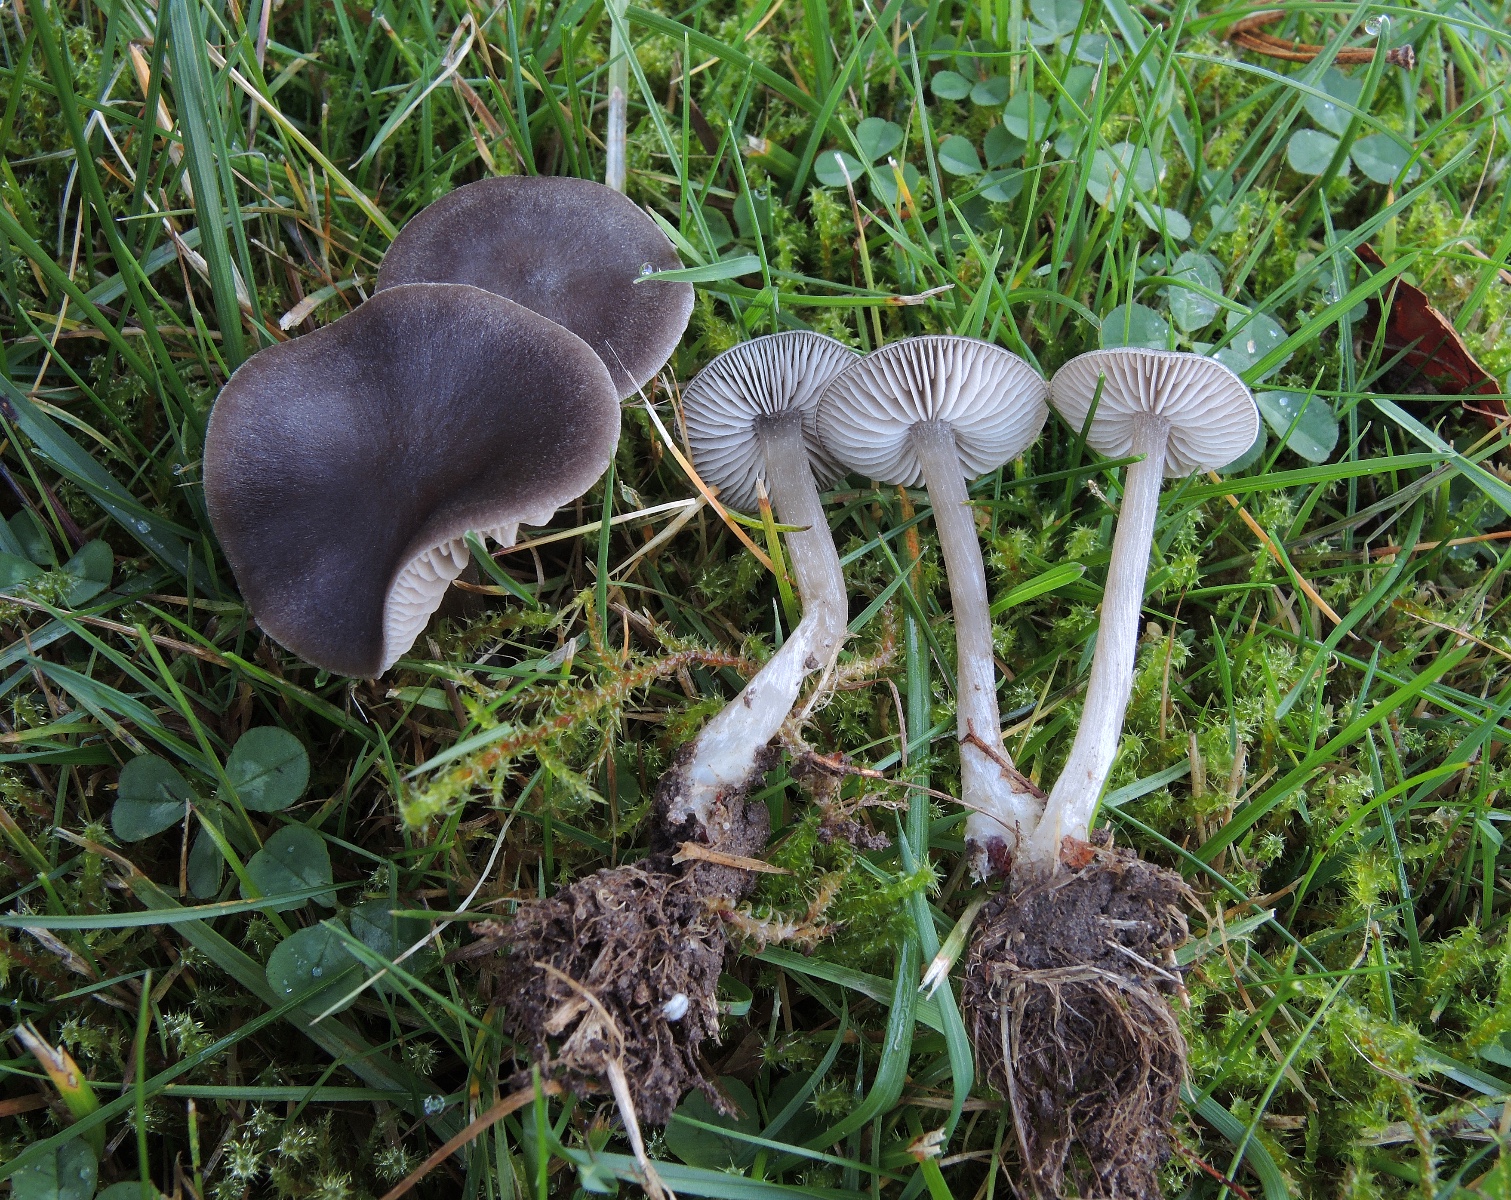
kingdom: Fungi
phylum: Basidiomycota
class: Agaricomycetes
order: Agaricales
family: Entolomataceae
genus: Entoloma
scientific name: Entoloma sericeum
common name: silkeglinsende rødblad
